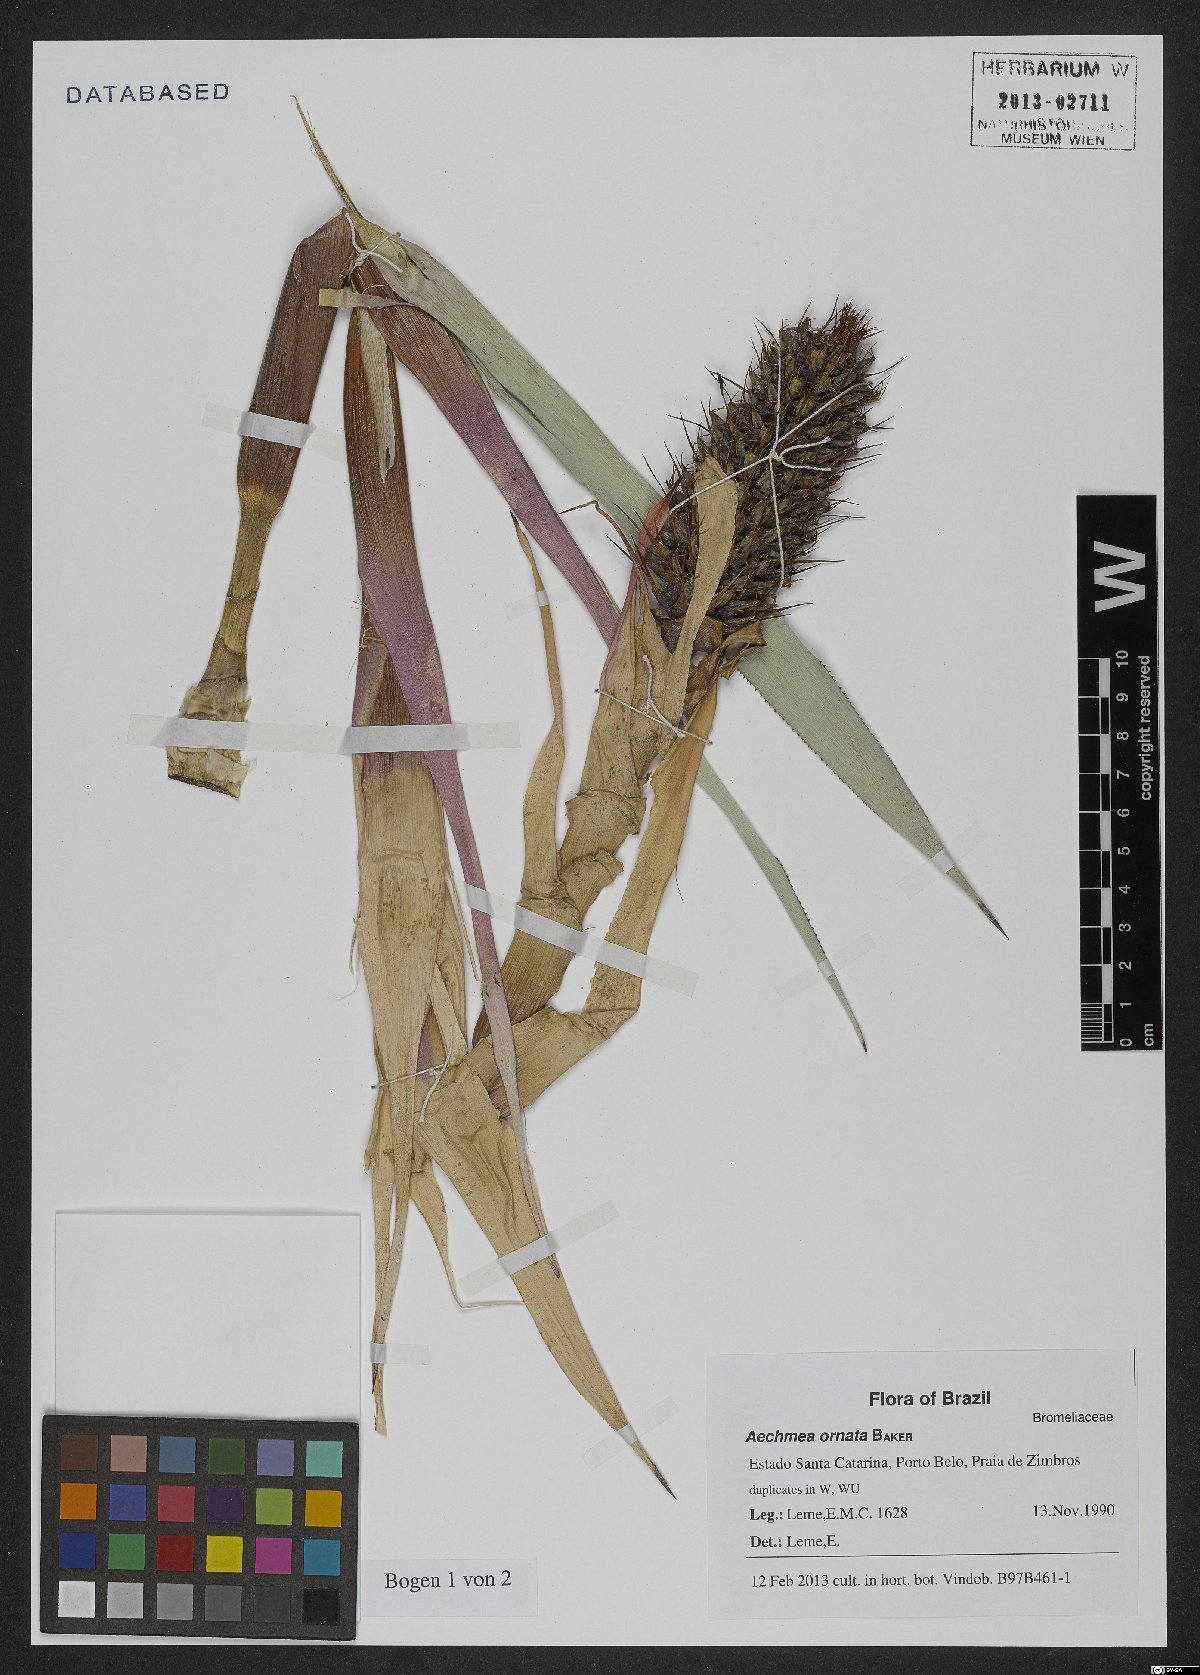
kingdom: Plantae
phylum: Tracheophyta
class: Liliopsida
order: Poales
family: Bromeliaceae
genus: Aechmea
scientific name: Aechmea ornata
